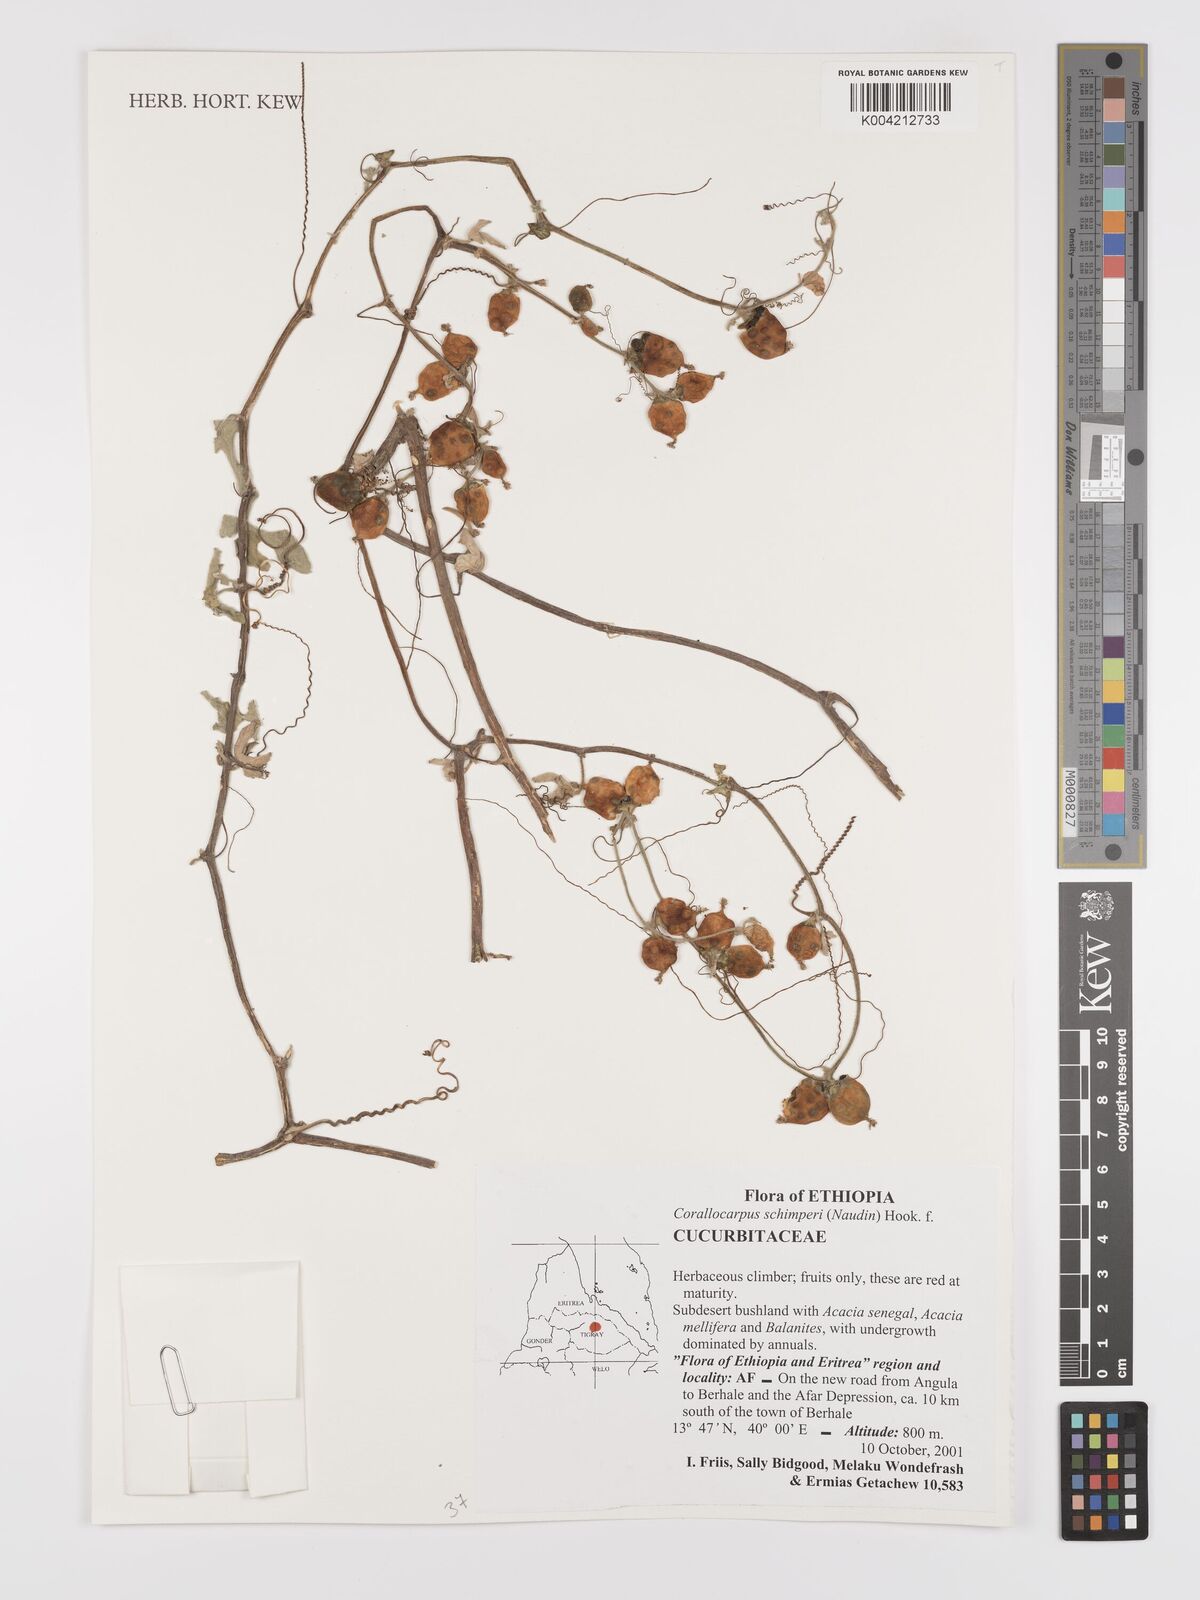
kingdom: Plantae
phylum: Tracheophyta
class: Magnoliopsida
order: Cucurbitales
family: Cucurbitaceae
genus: Corallocarpus
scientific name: Corallocarpus schimperi
